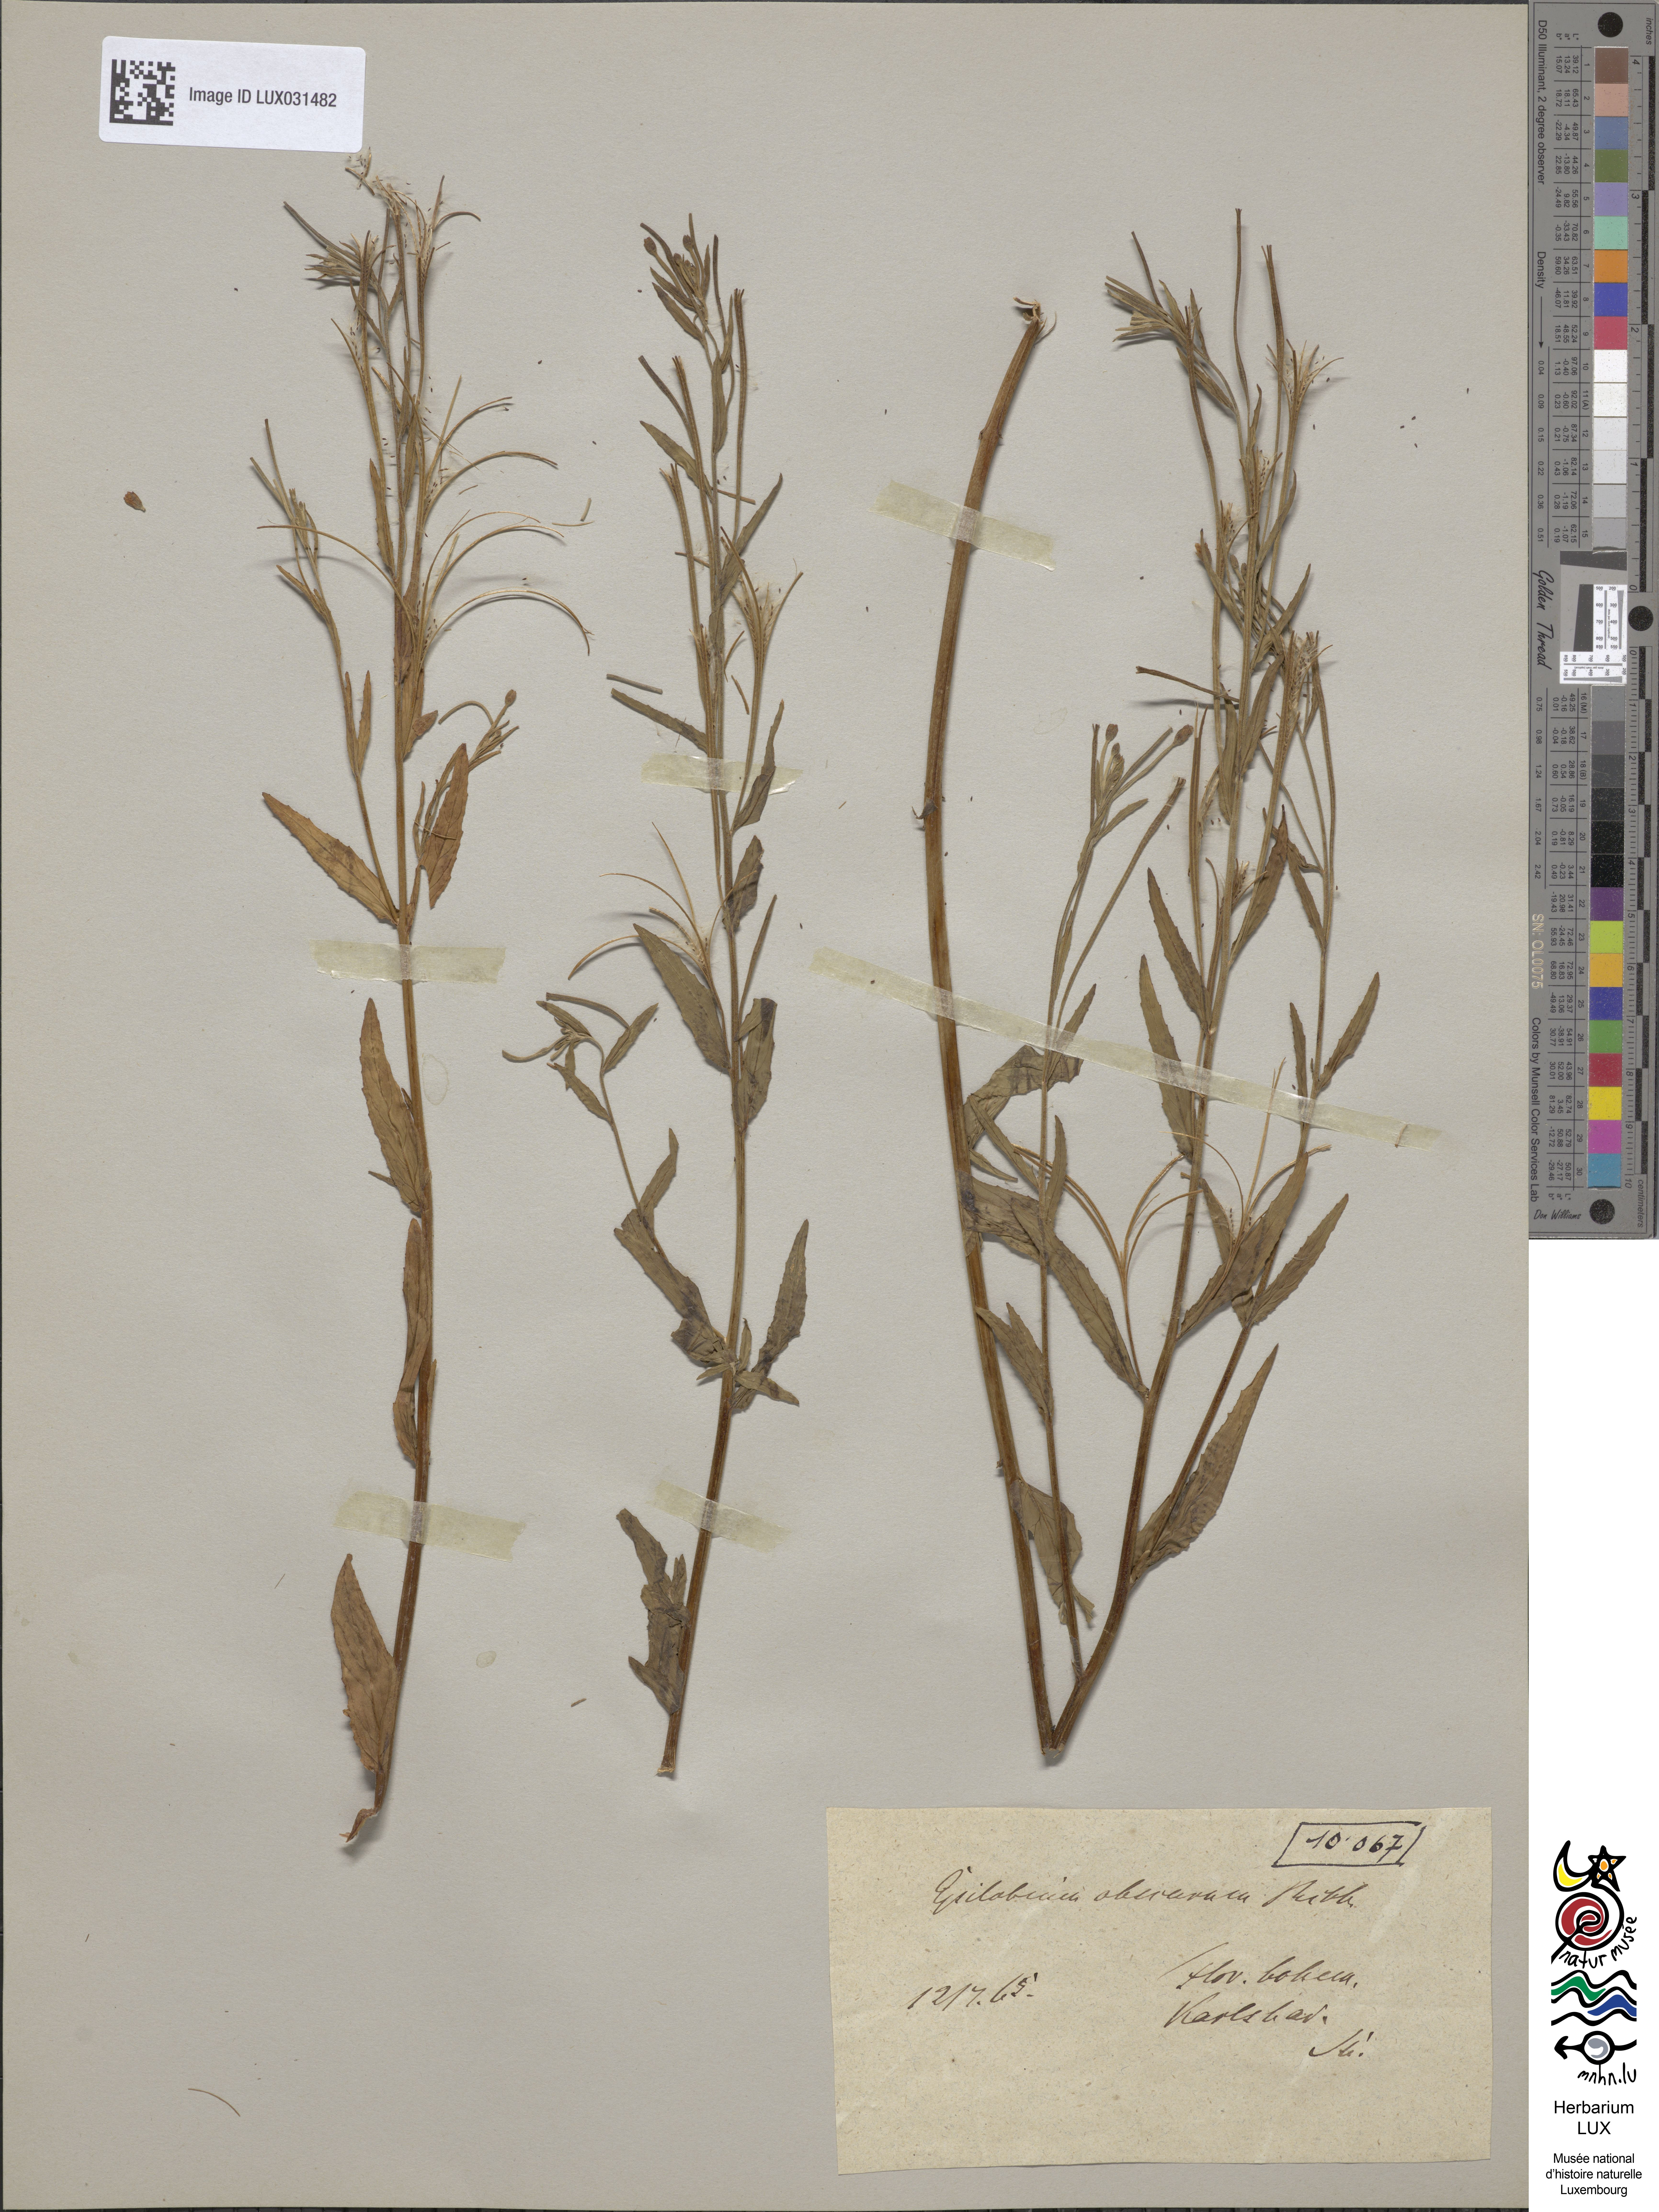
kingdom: Plantae
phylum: Tracheophyta
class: Magnoliopsida
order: Myrtales
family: Onagraceae
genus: Epilobium
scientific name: Epilobium obscurum
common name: Short-fruited willowherb
